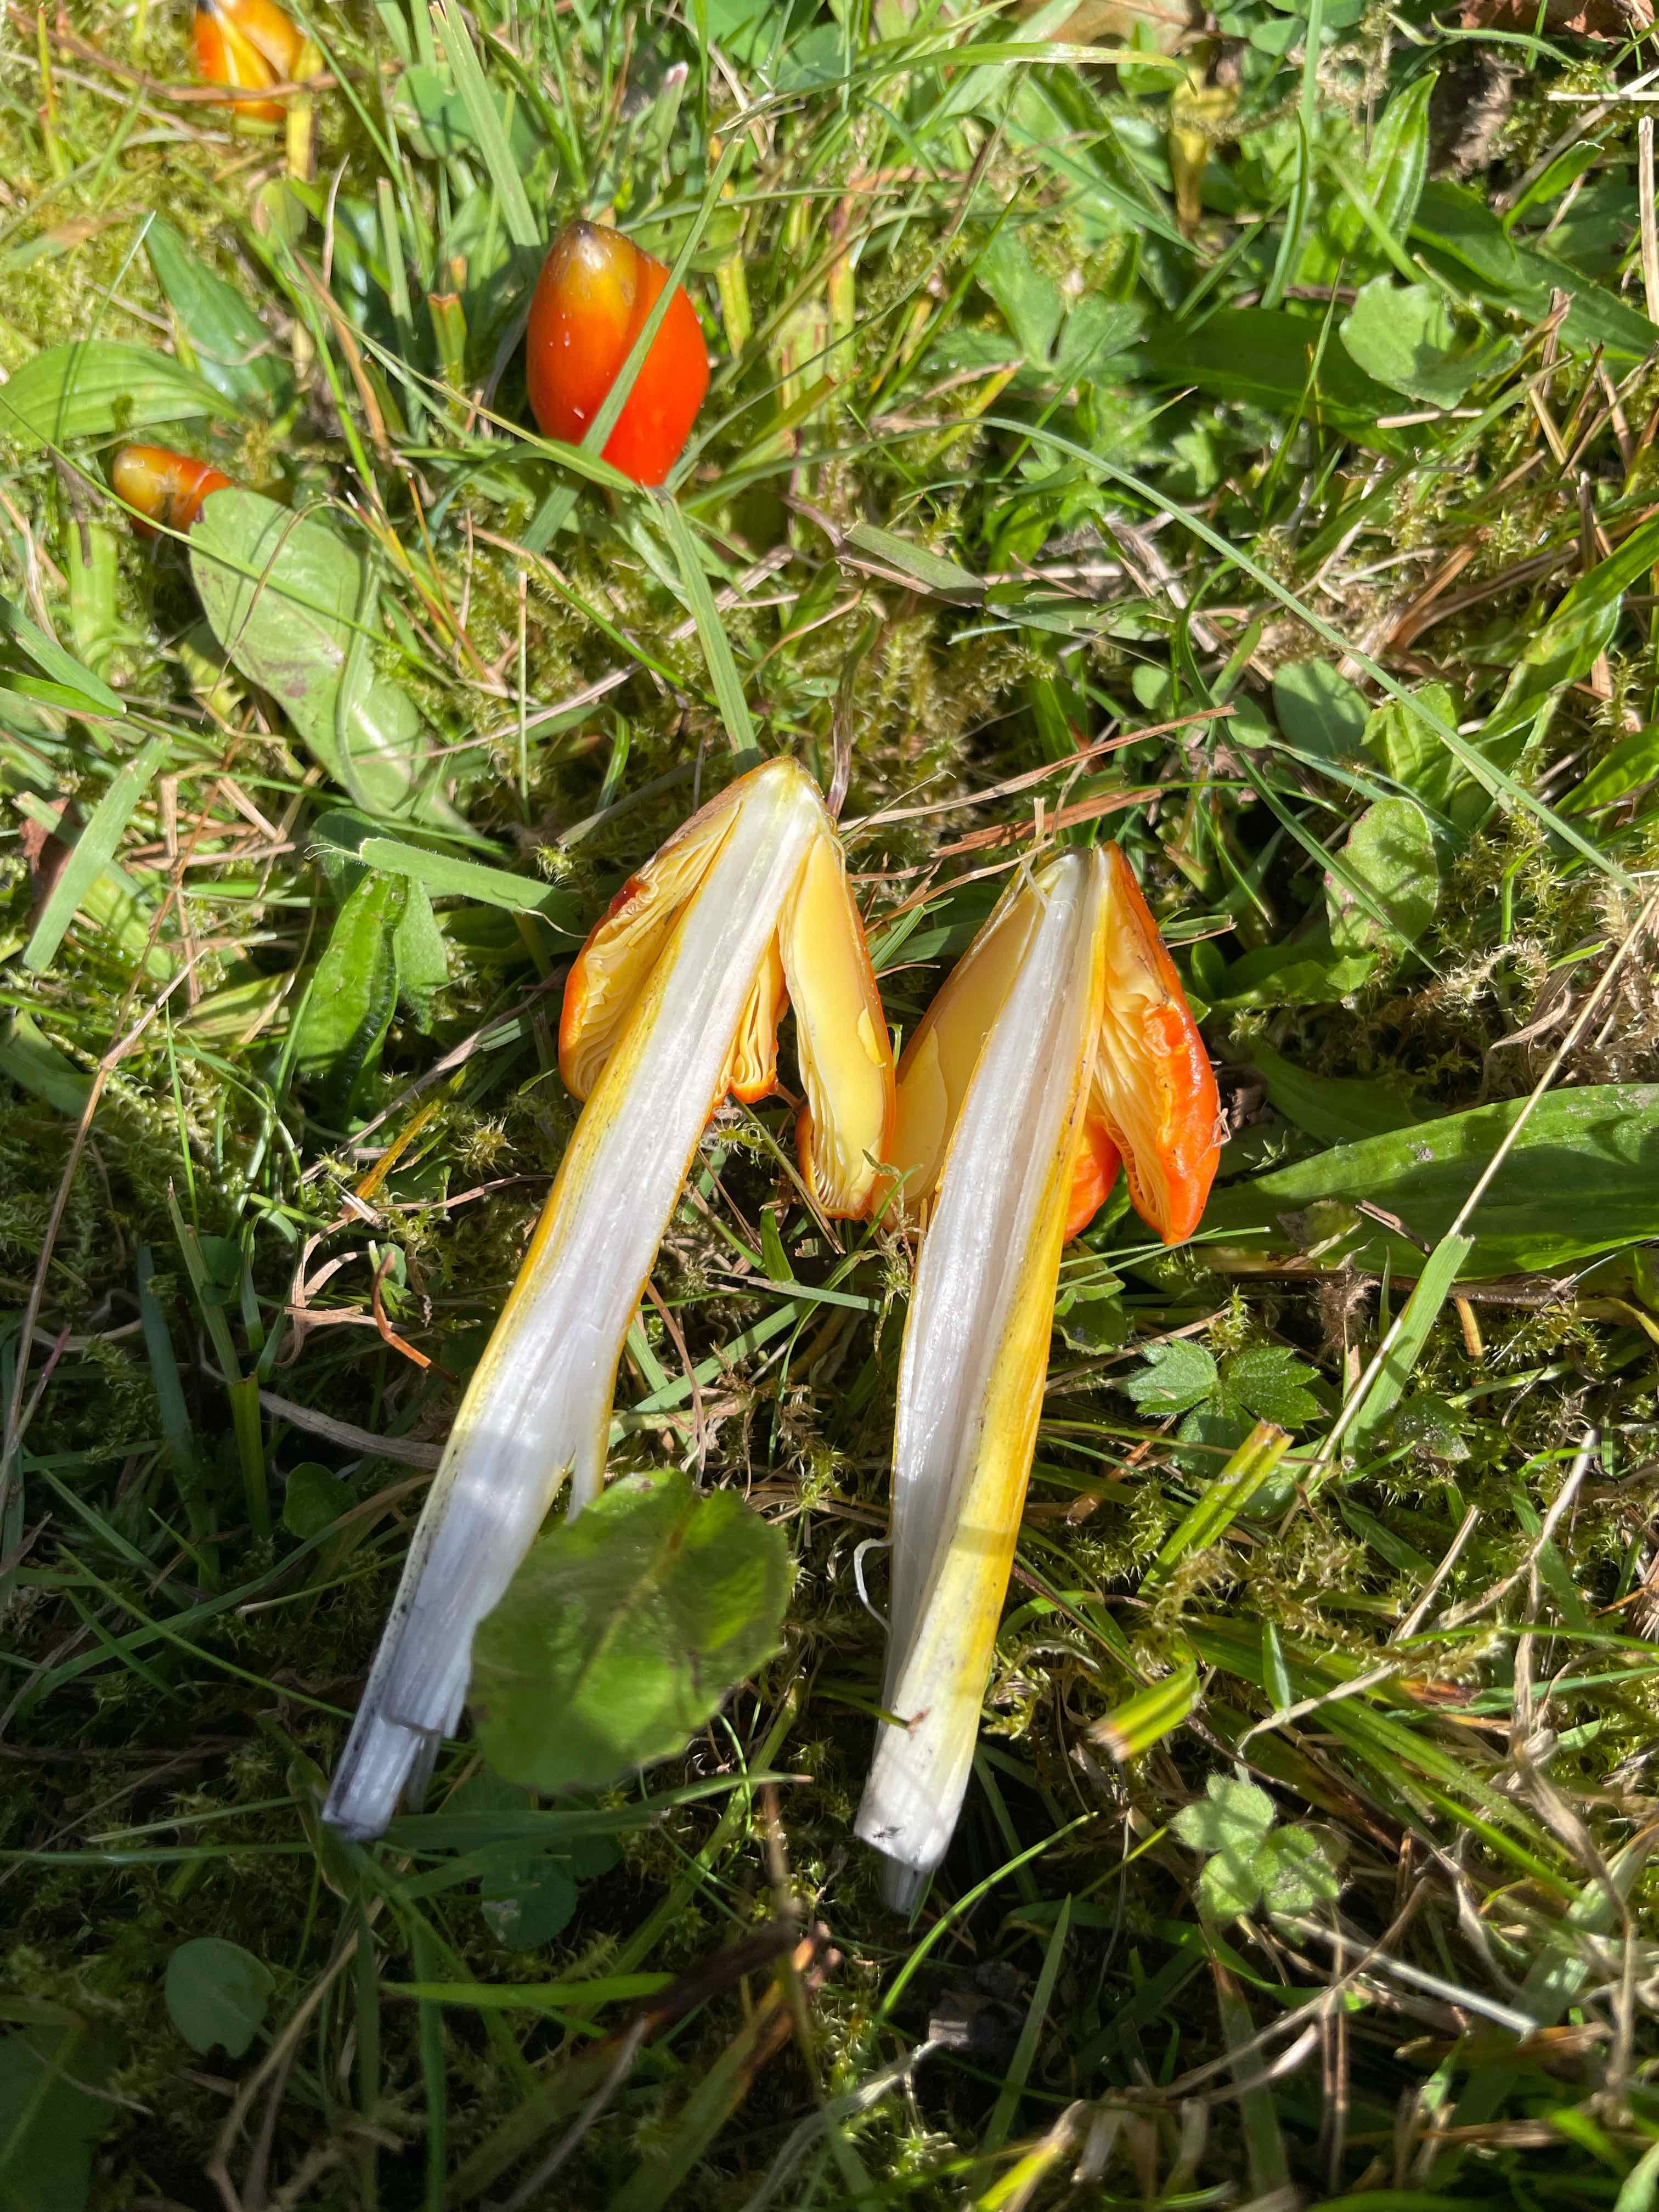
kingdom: Fungi
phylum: Basidiomycota
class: Agaricomycetes
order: Agaricales
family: Hygrophoraceae
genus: Hygrocybe
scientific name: Hygrocybe conica
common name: kegle-vokshat
